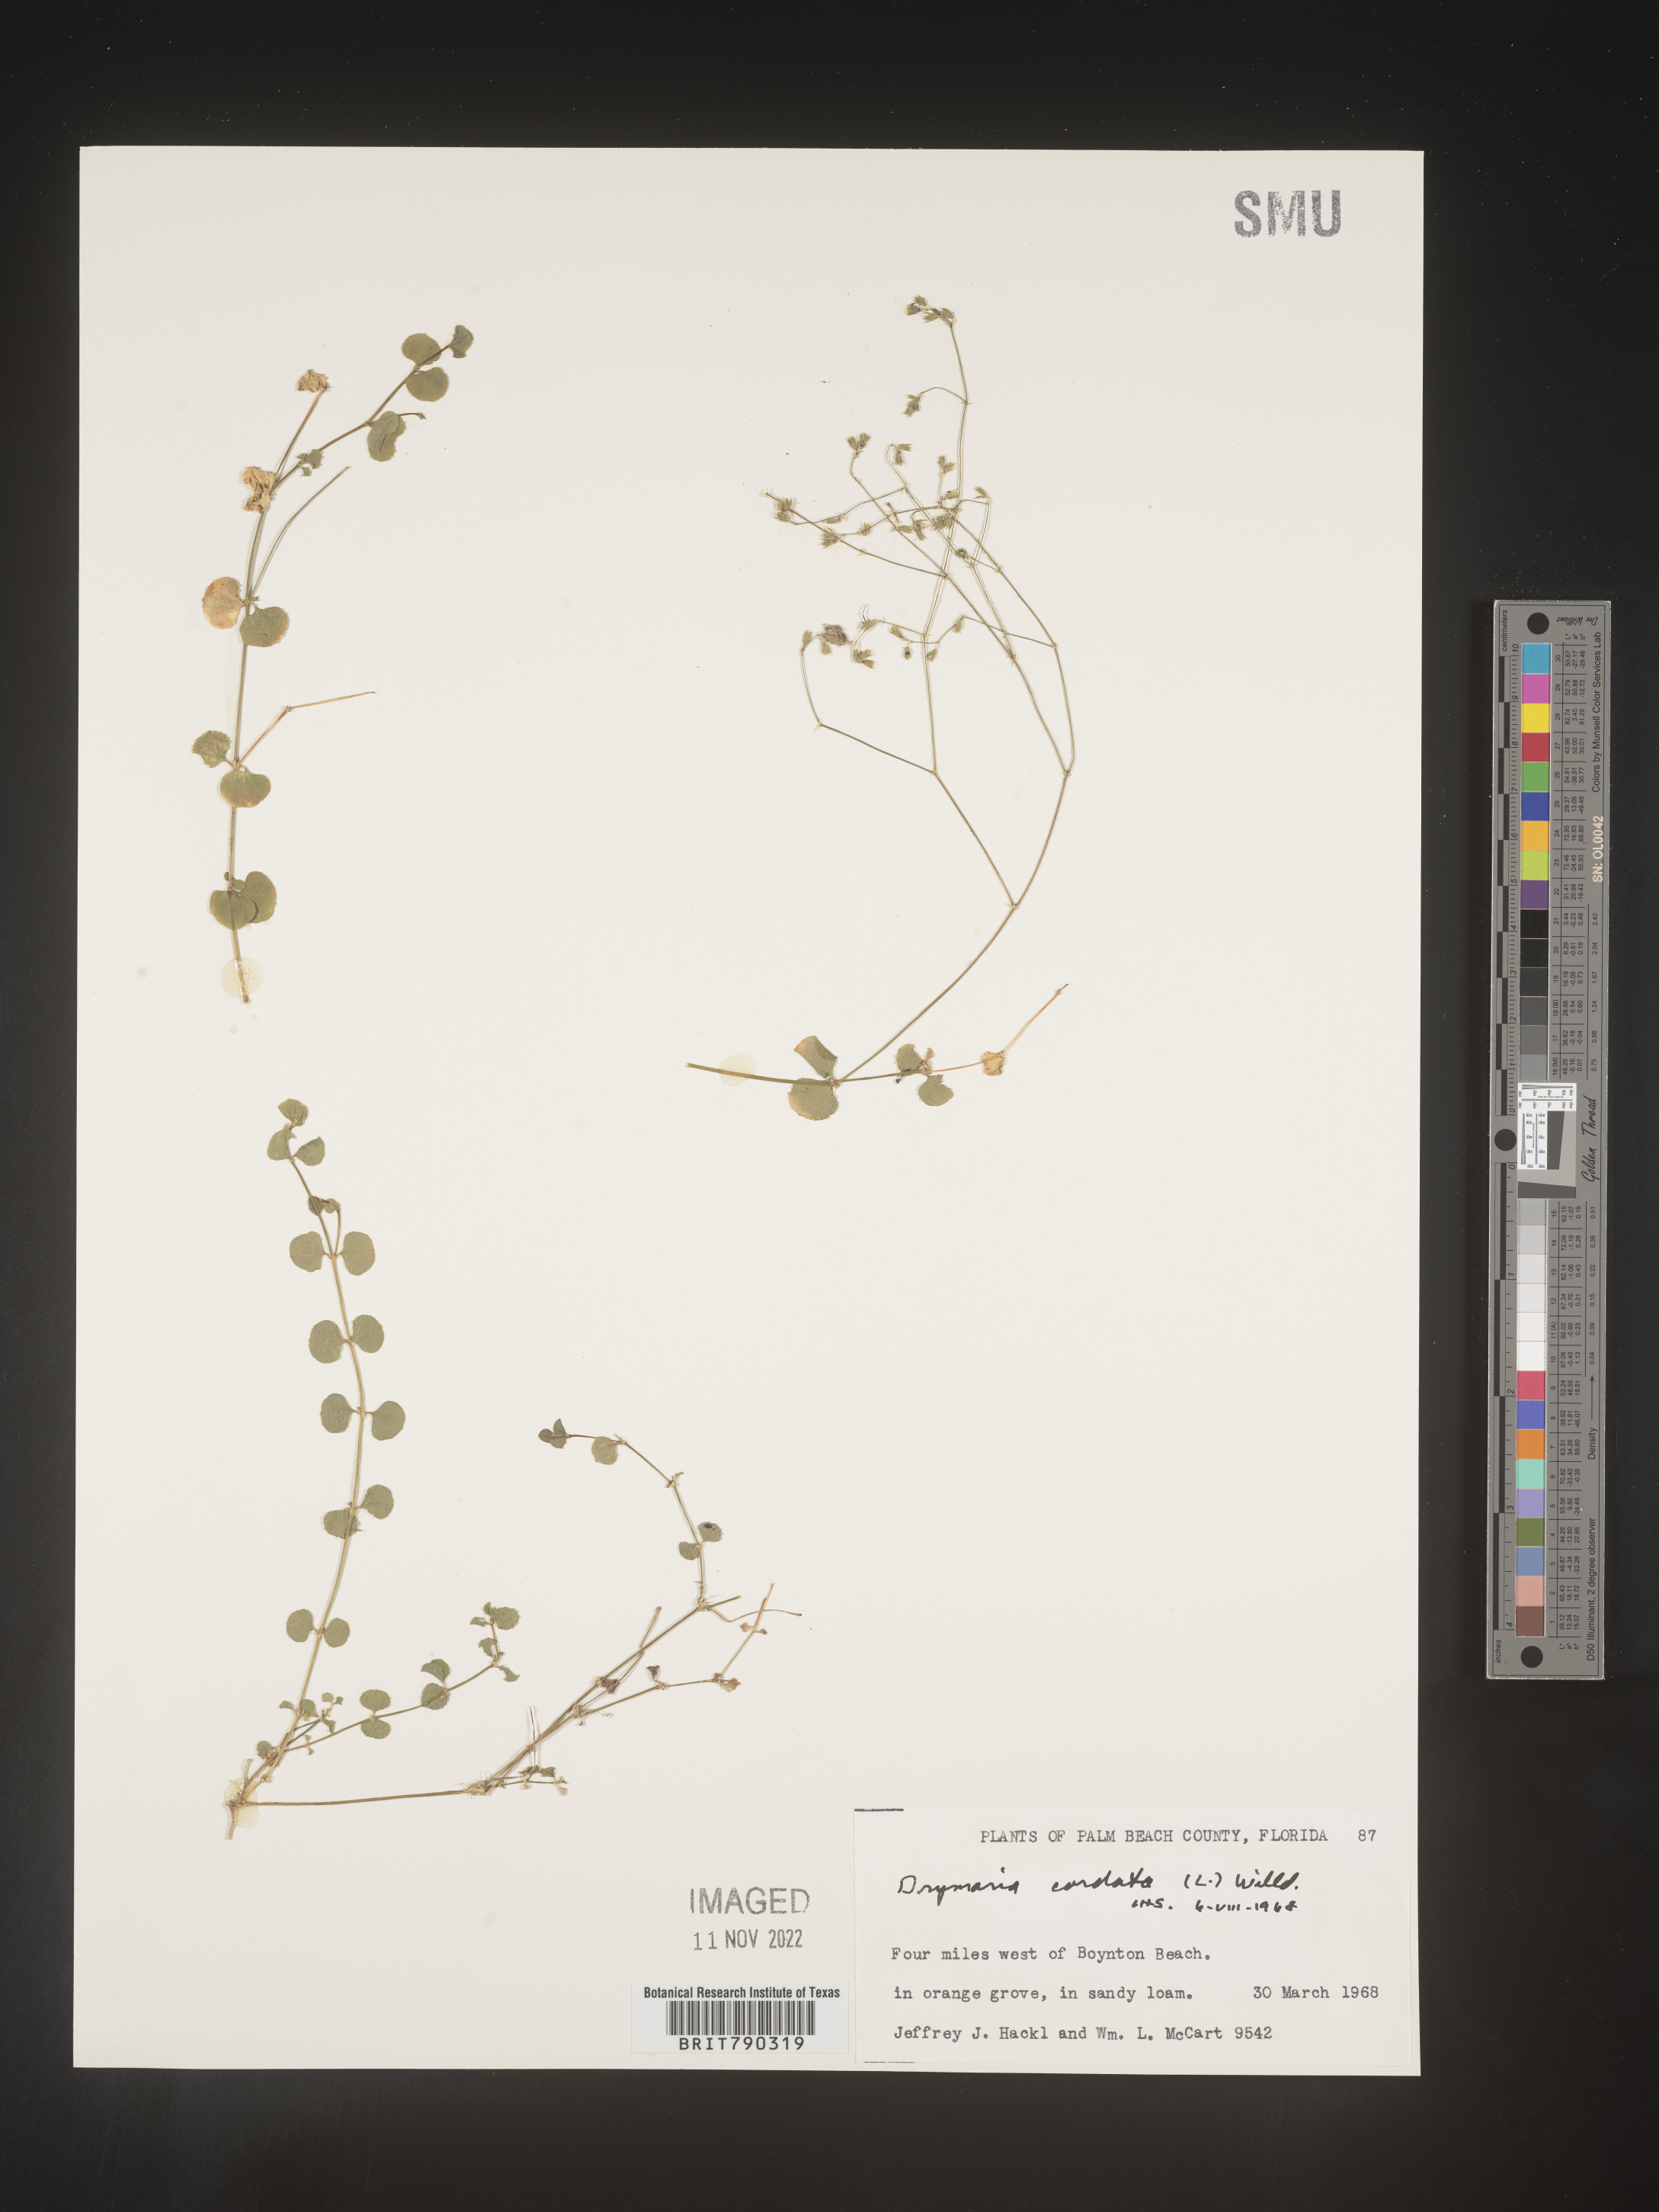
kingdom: Plantae
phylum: Tracheophyta
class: Magnoliopsida
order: Caryophyllales
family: Caryophyllaceae
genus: Drymaria
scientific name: Drymaria
